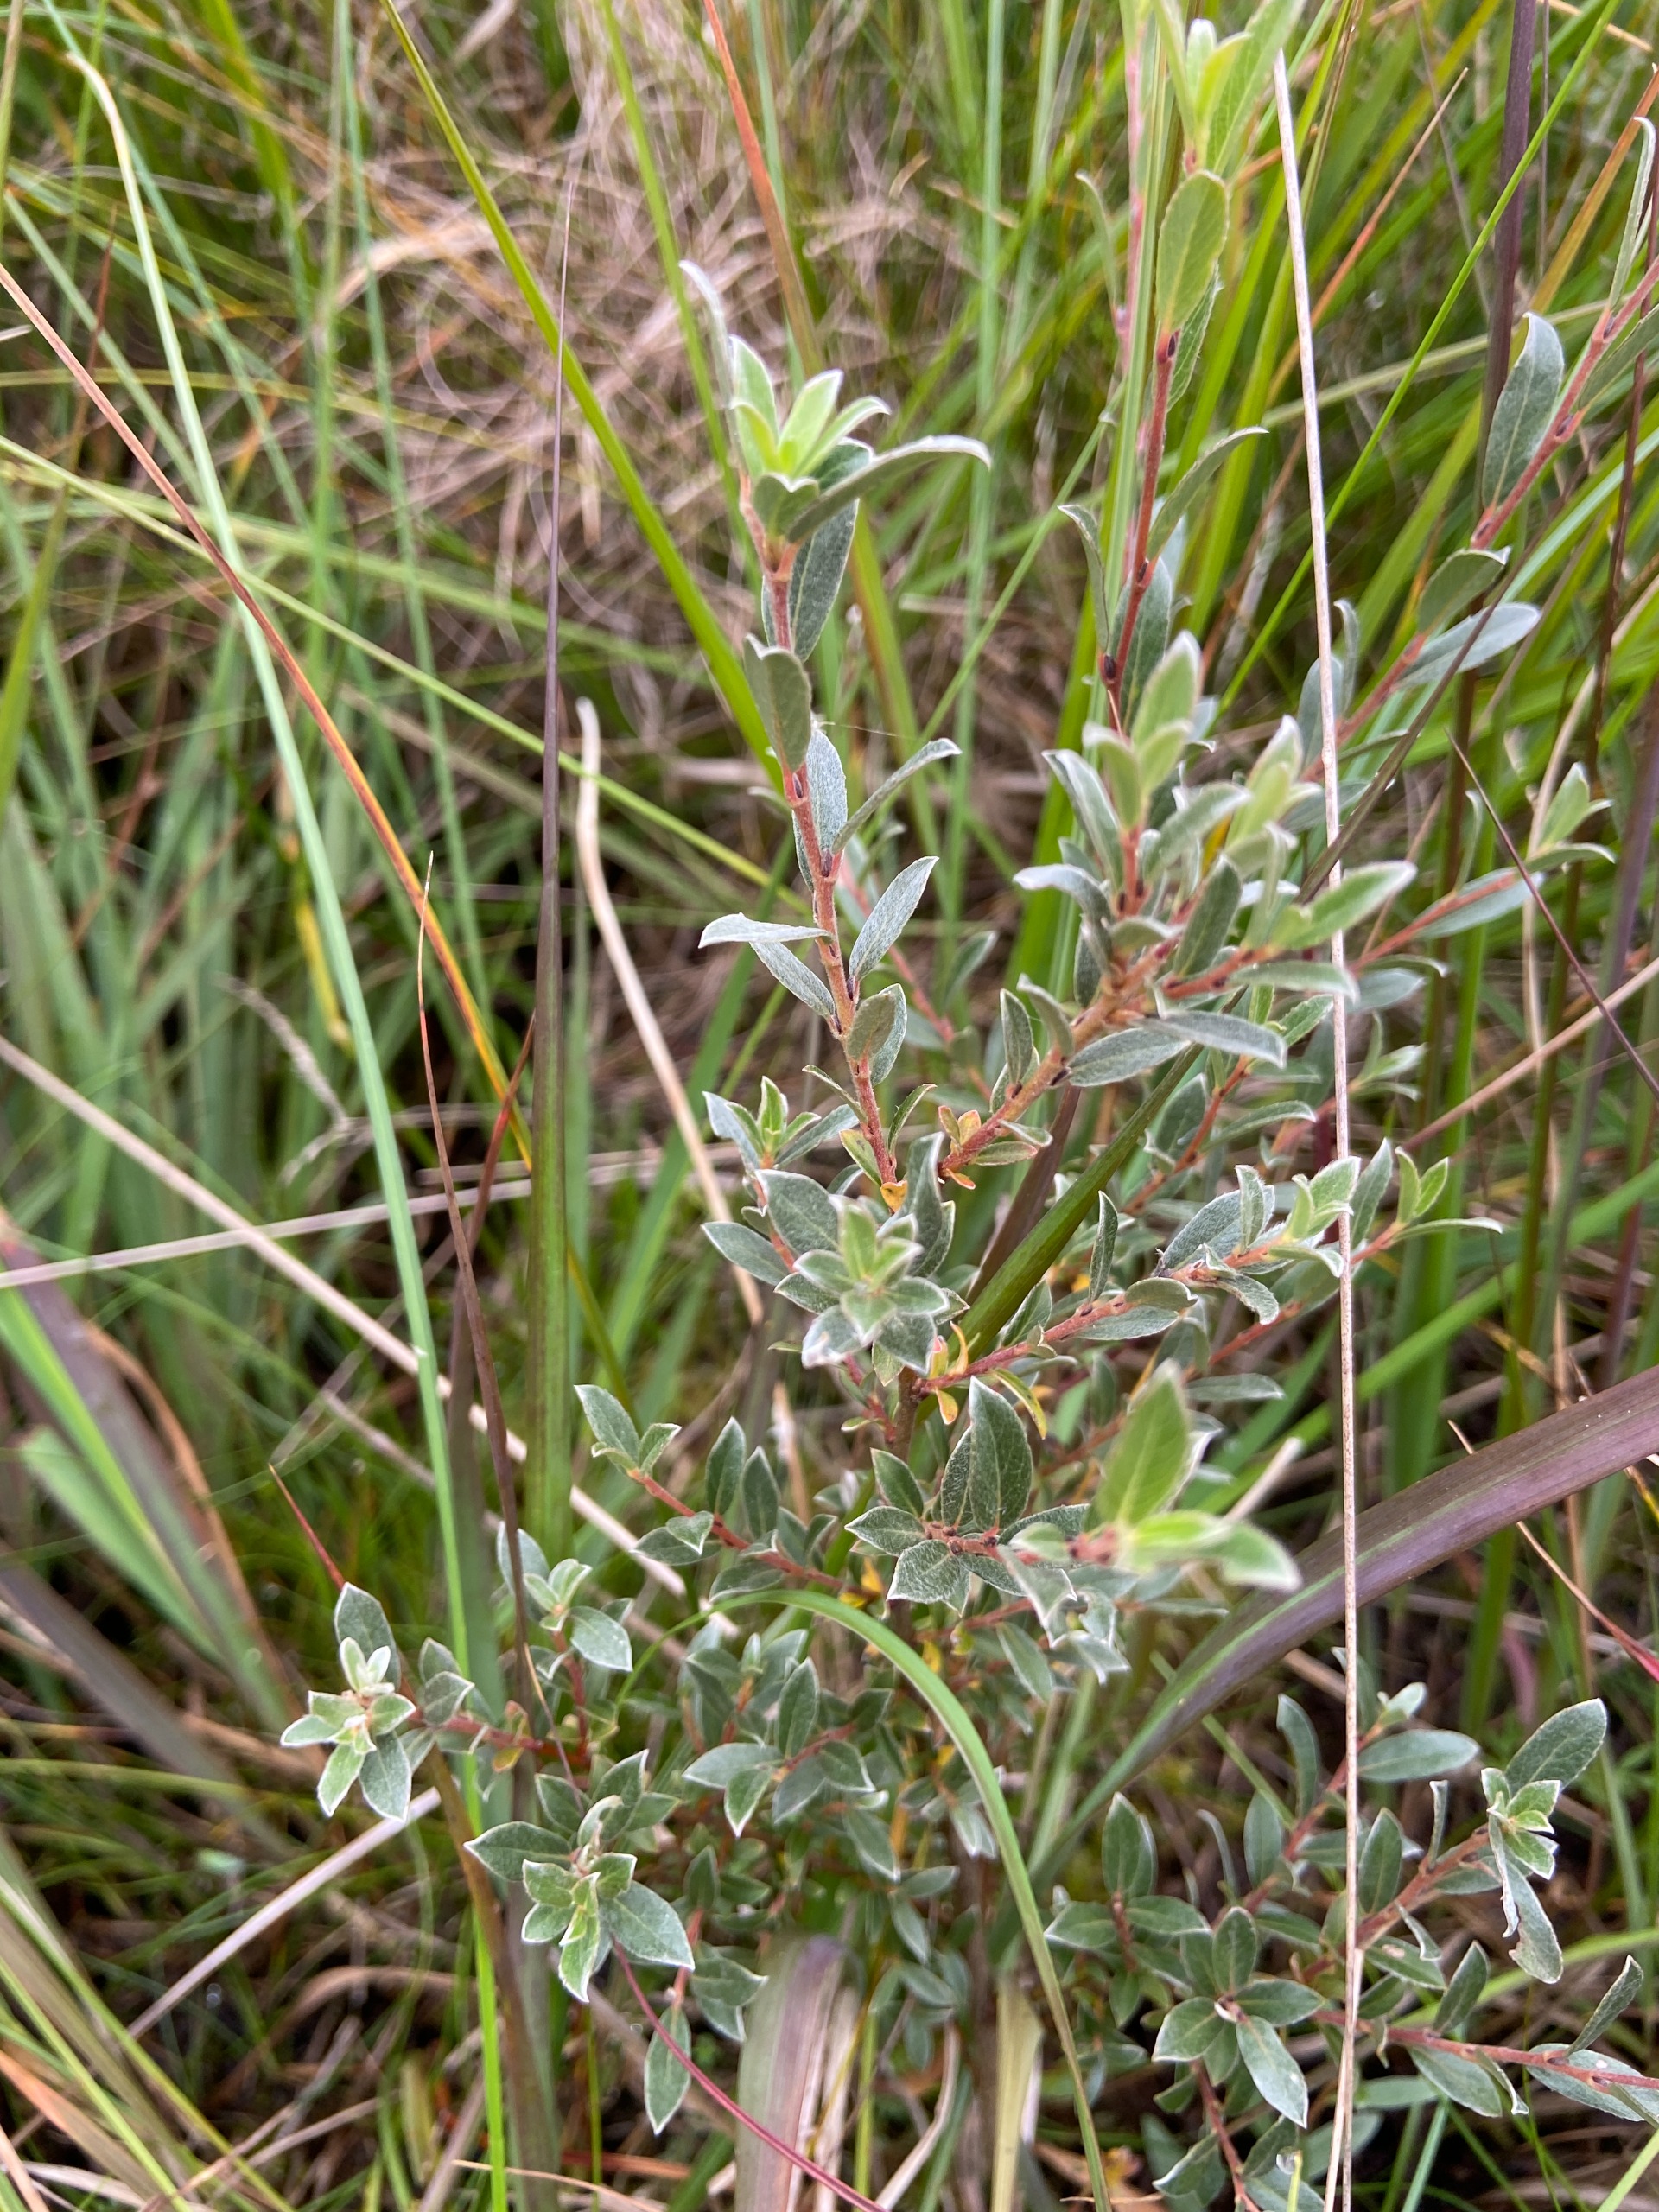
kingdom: Plantae
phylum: Tracheophyta
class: Magnoliopsida
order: Malpighiales
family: Salicaceae
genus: Salix
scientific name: Salix repens
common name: Krybende pil
